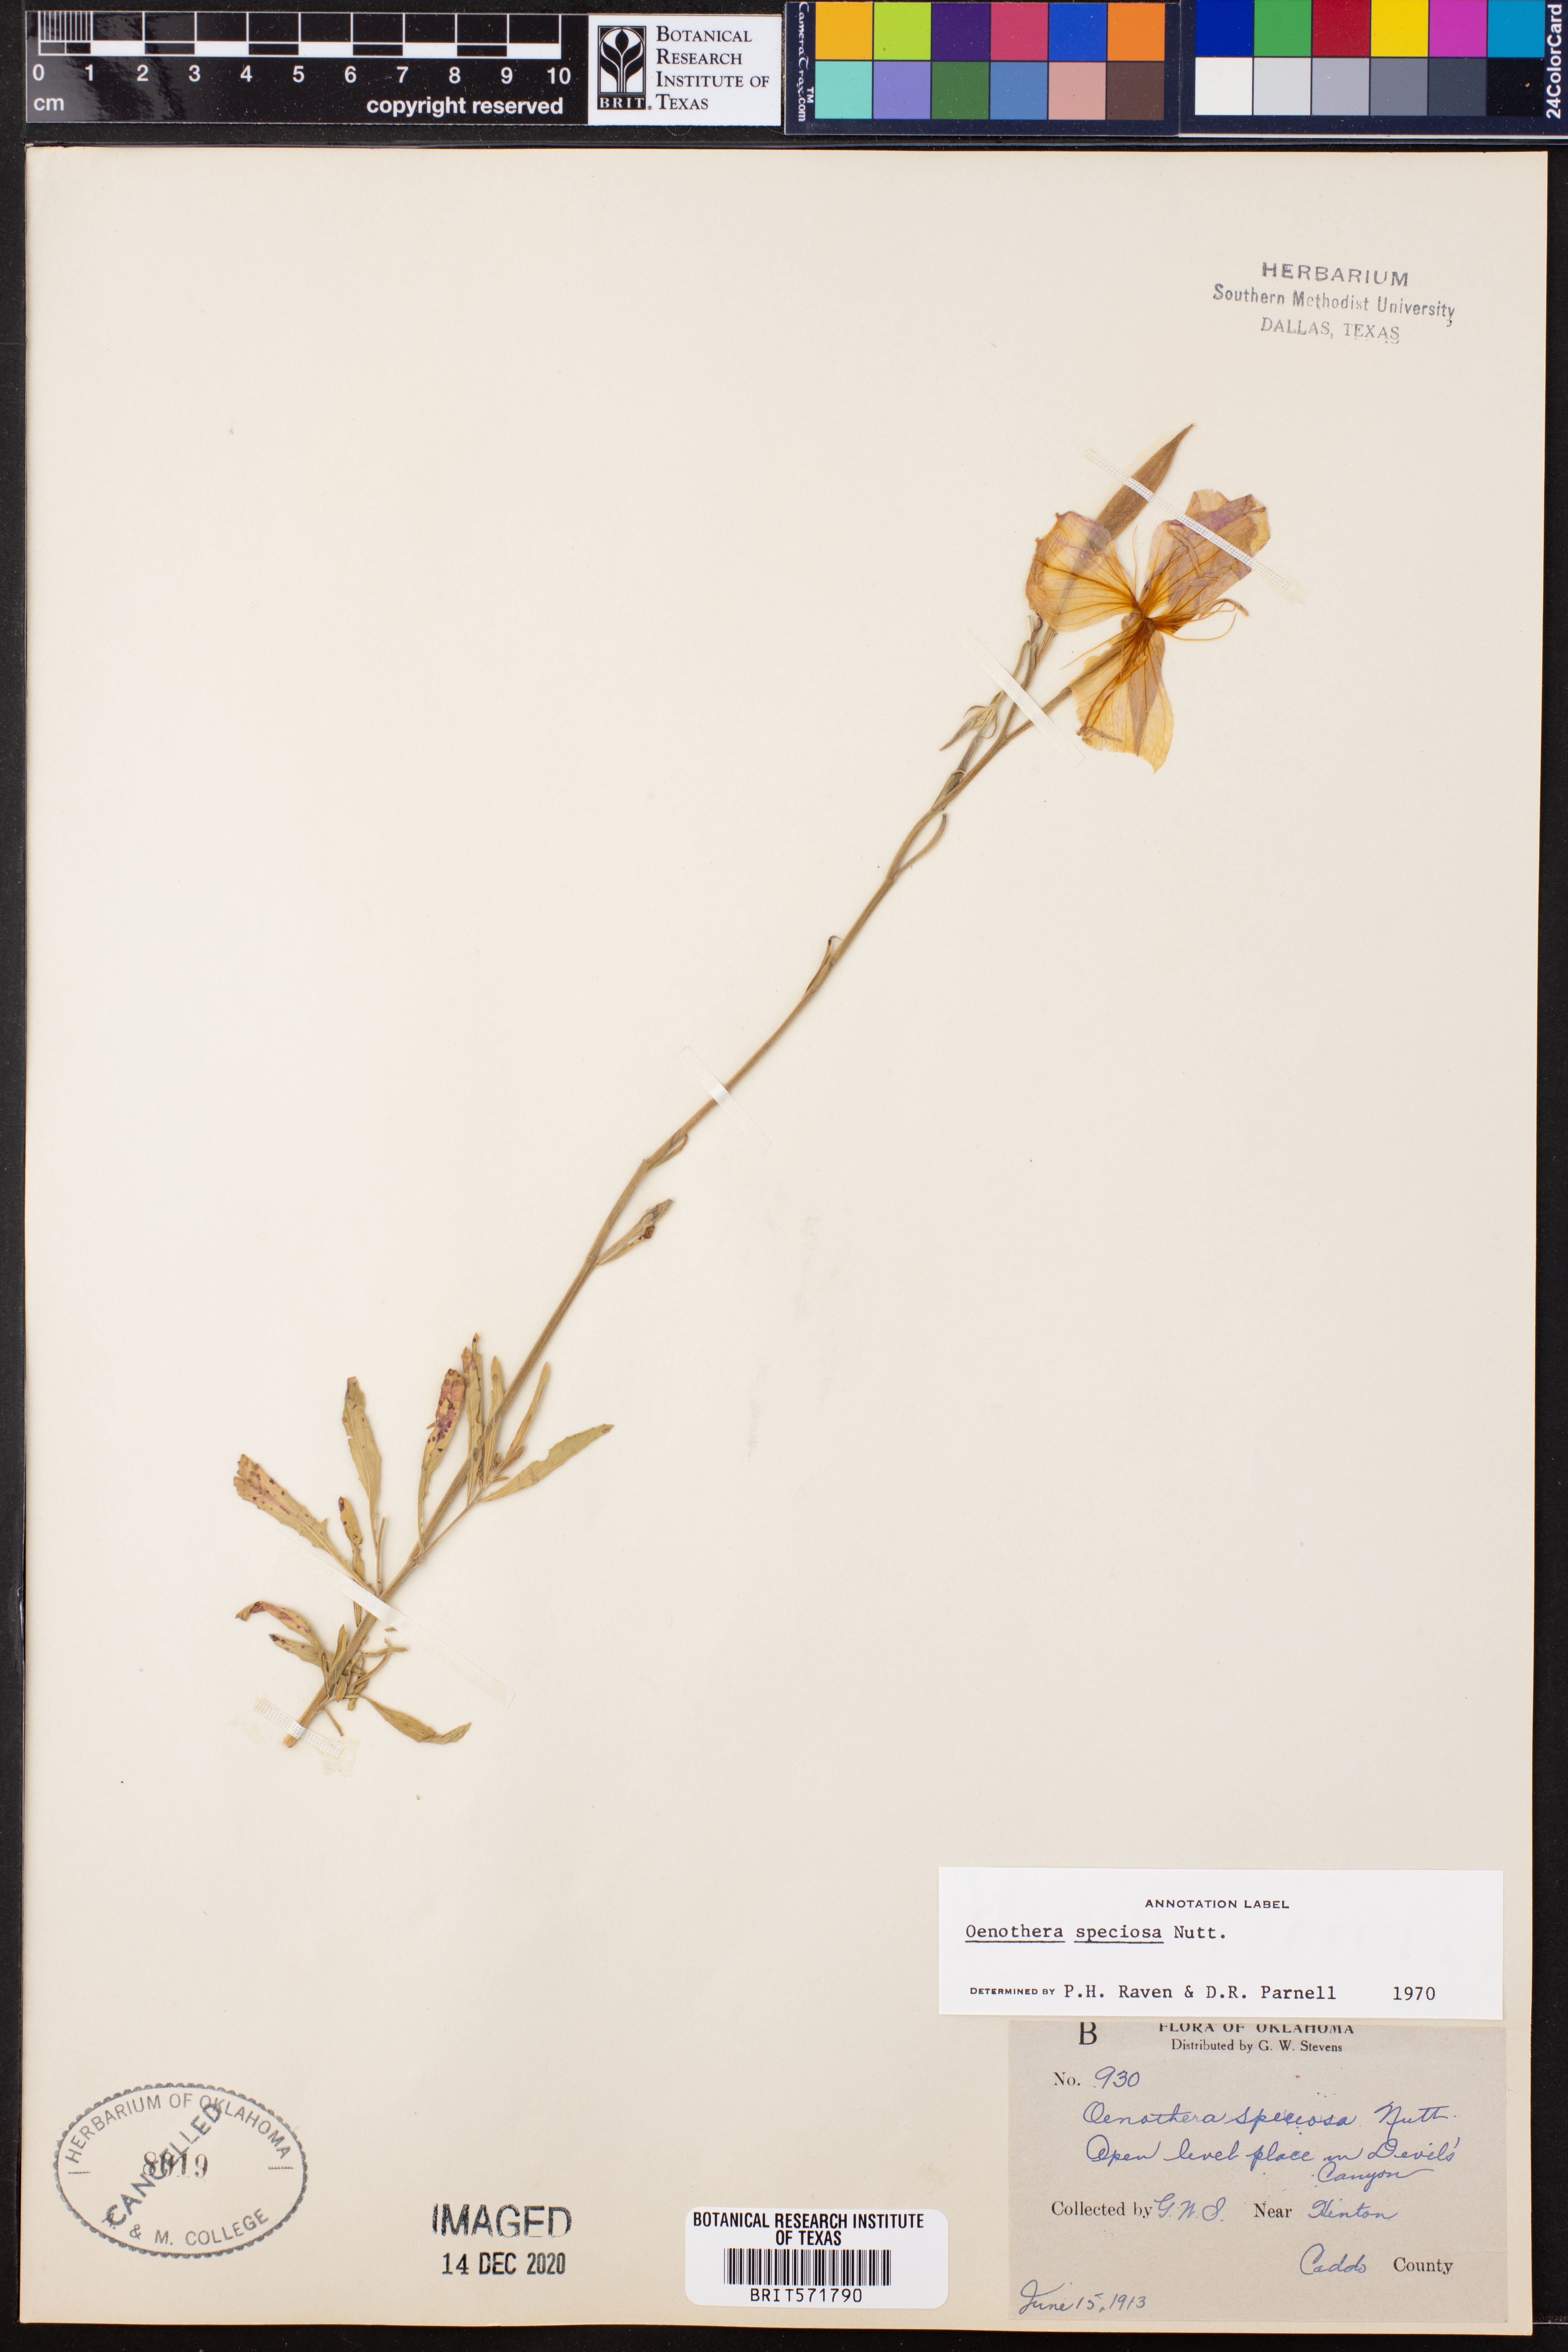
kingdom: Plantae
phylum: Tracheophyta
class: Magnoliopsida
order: Myrtales
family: Onagraceae
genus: Oenothera
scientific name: Oenothera speciosa
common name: White evening-primrose
